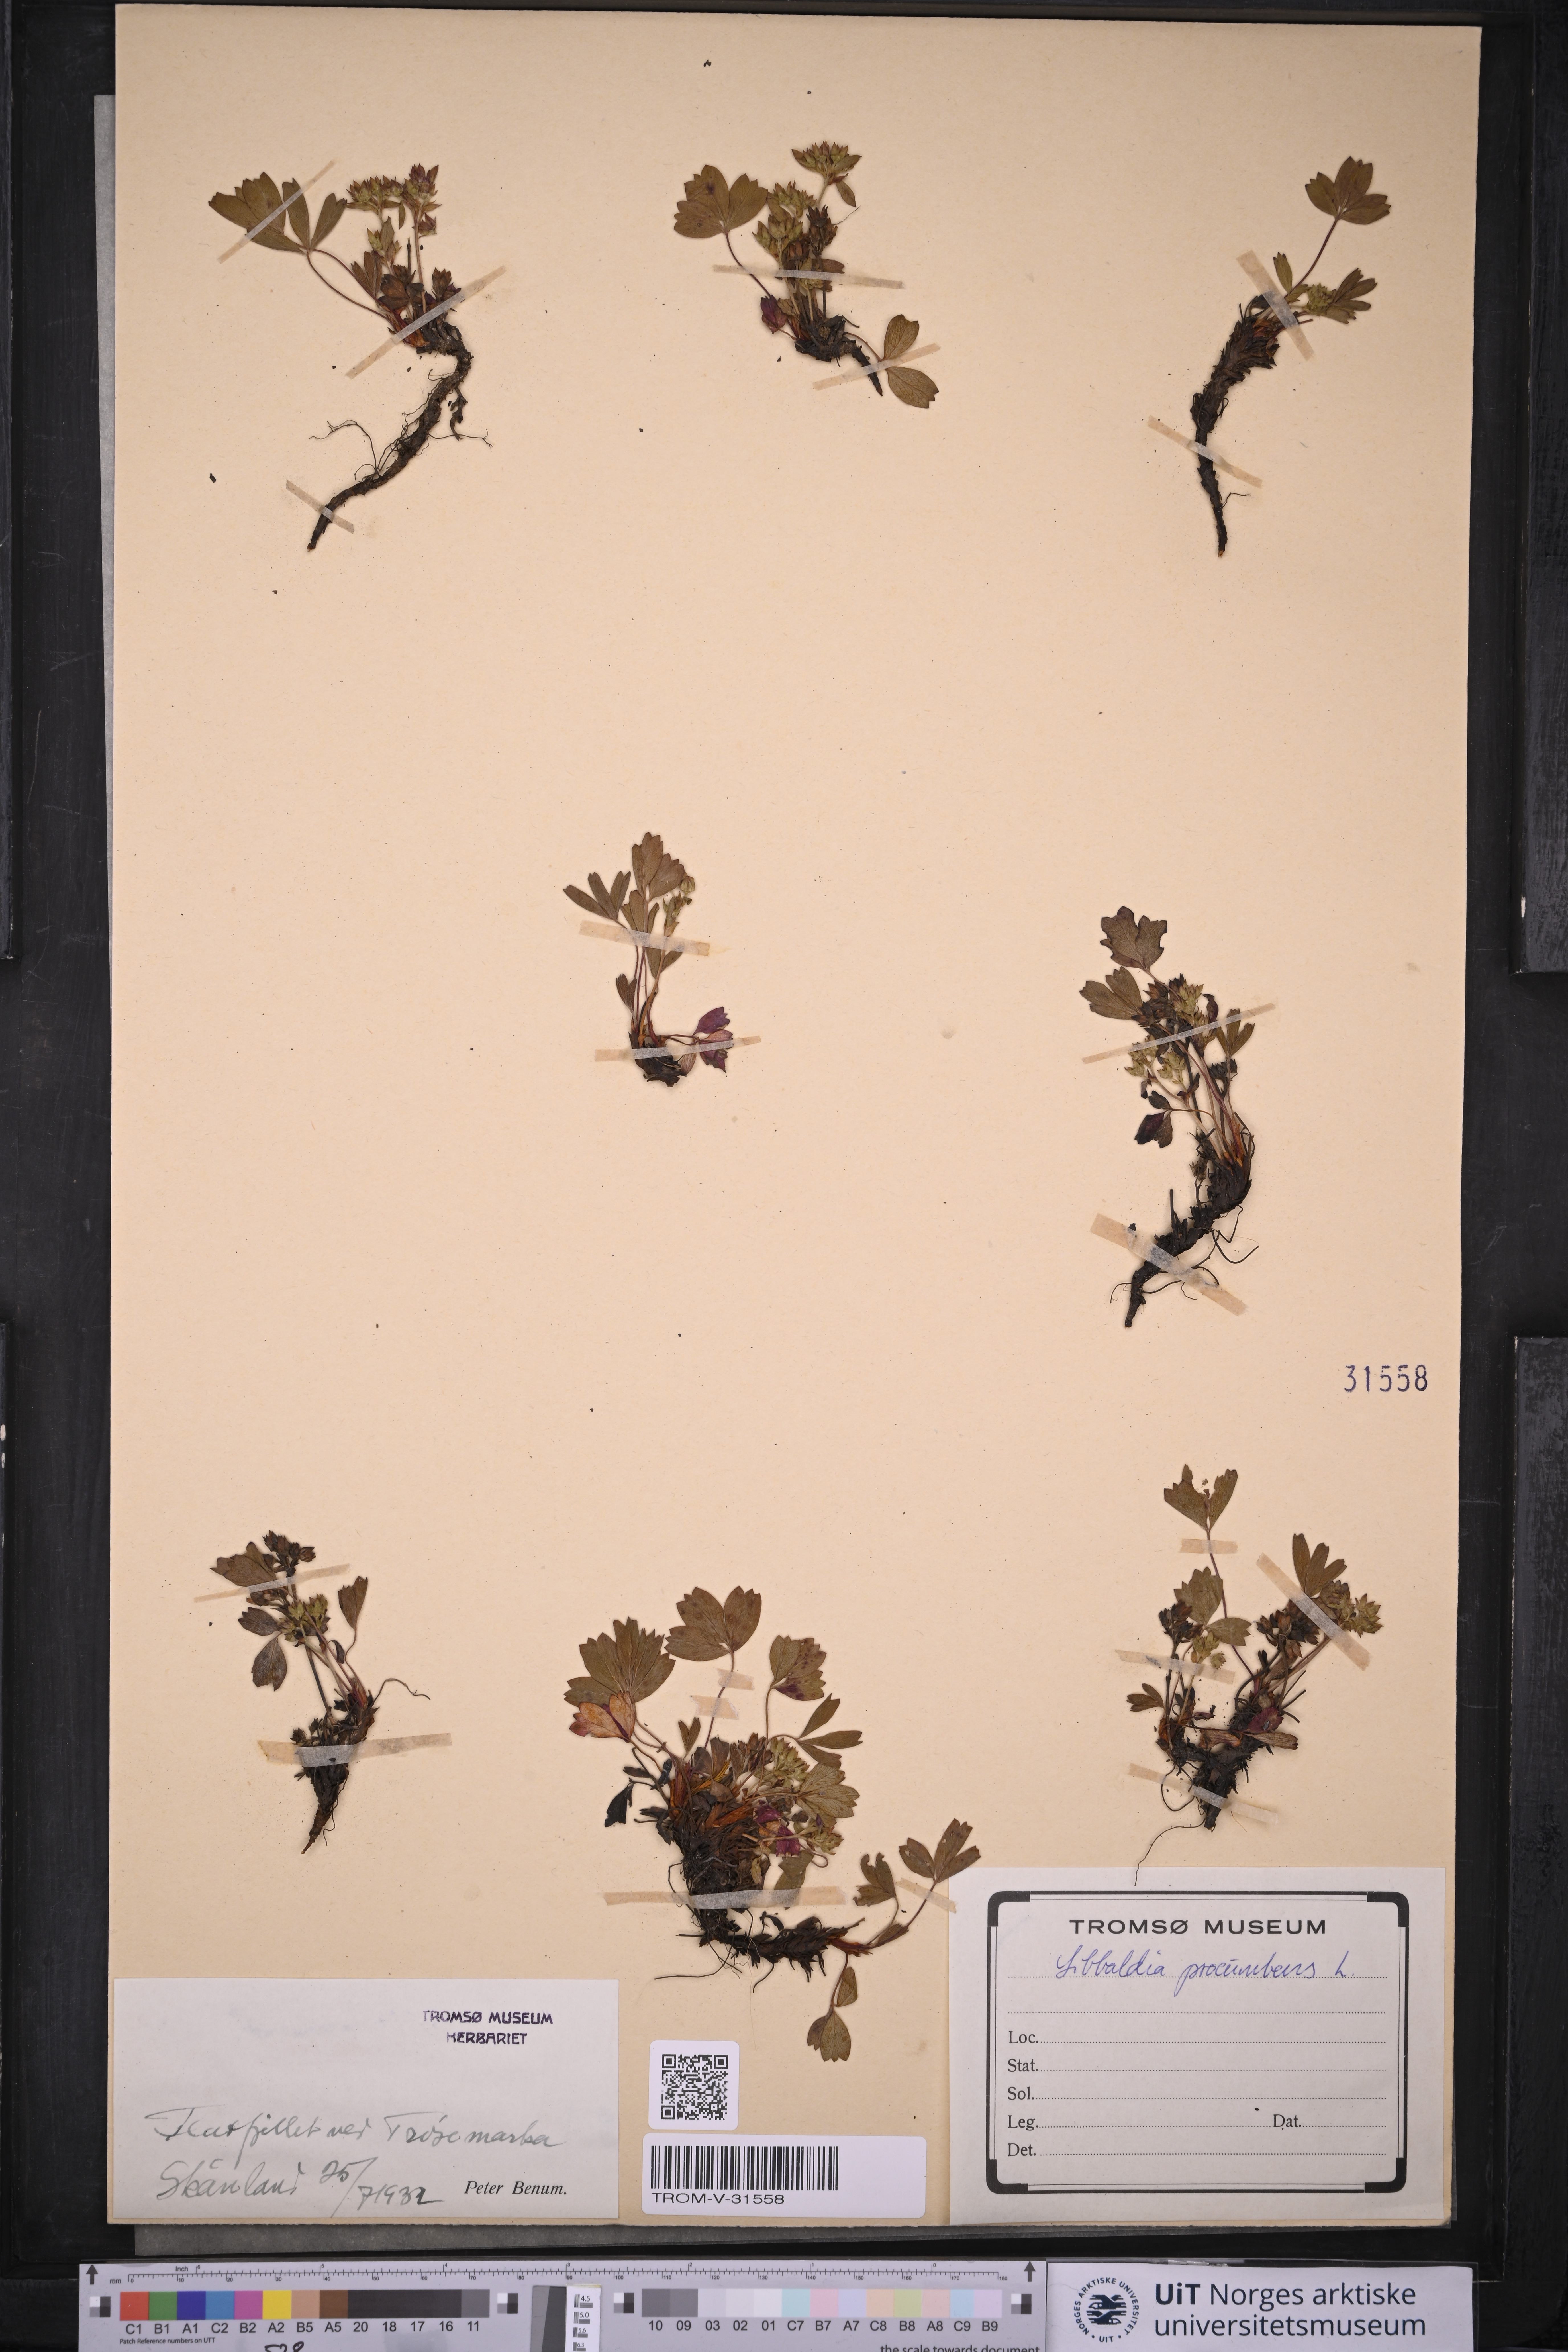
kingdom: Plantae
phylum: Tracheophyta
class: Magnoliopsida
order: Rosales
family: Rosaceae
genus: Sibbaldia
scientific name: Sibbaldia procumbens
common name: Creeping sibbaldia
